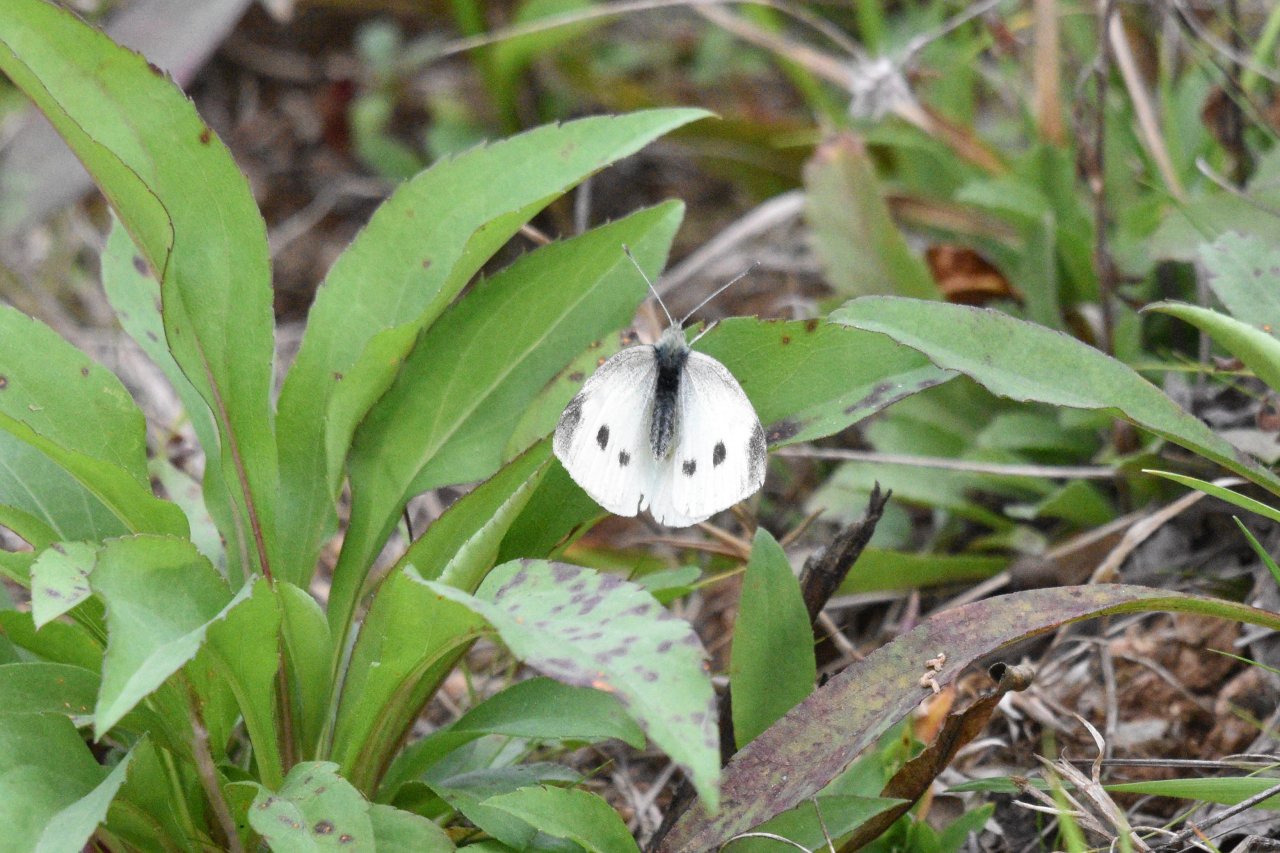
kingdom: Animalia
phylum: Arthropoda
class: Insecta
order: Lepidoptera
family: Pieridae
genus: Pieris
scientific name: Pieris rapae
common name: Cabbage White
